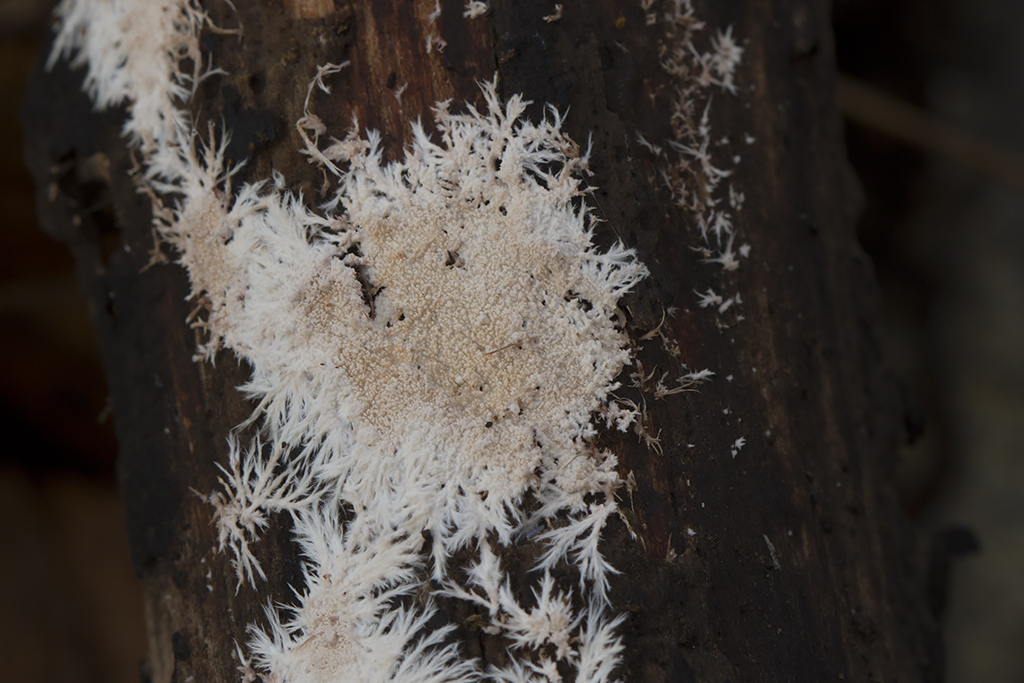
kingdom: Fungi
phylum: Basidiomycota
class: Agaricomycetes
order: Polyporales
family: Steccherinaceae
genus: Steccherinum
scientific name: Steccherinum fimbriatum
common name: trådet skønpig
